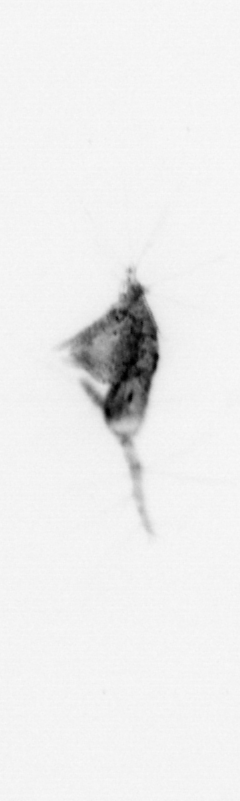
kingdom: Animalia
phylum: Arthropoda
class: Copepoda
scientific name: Copepoda
